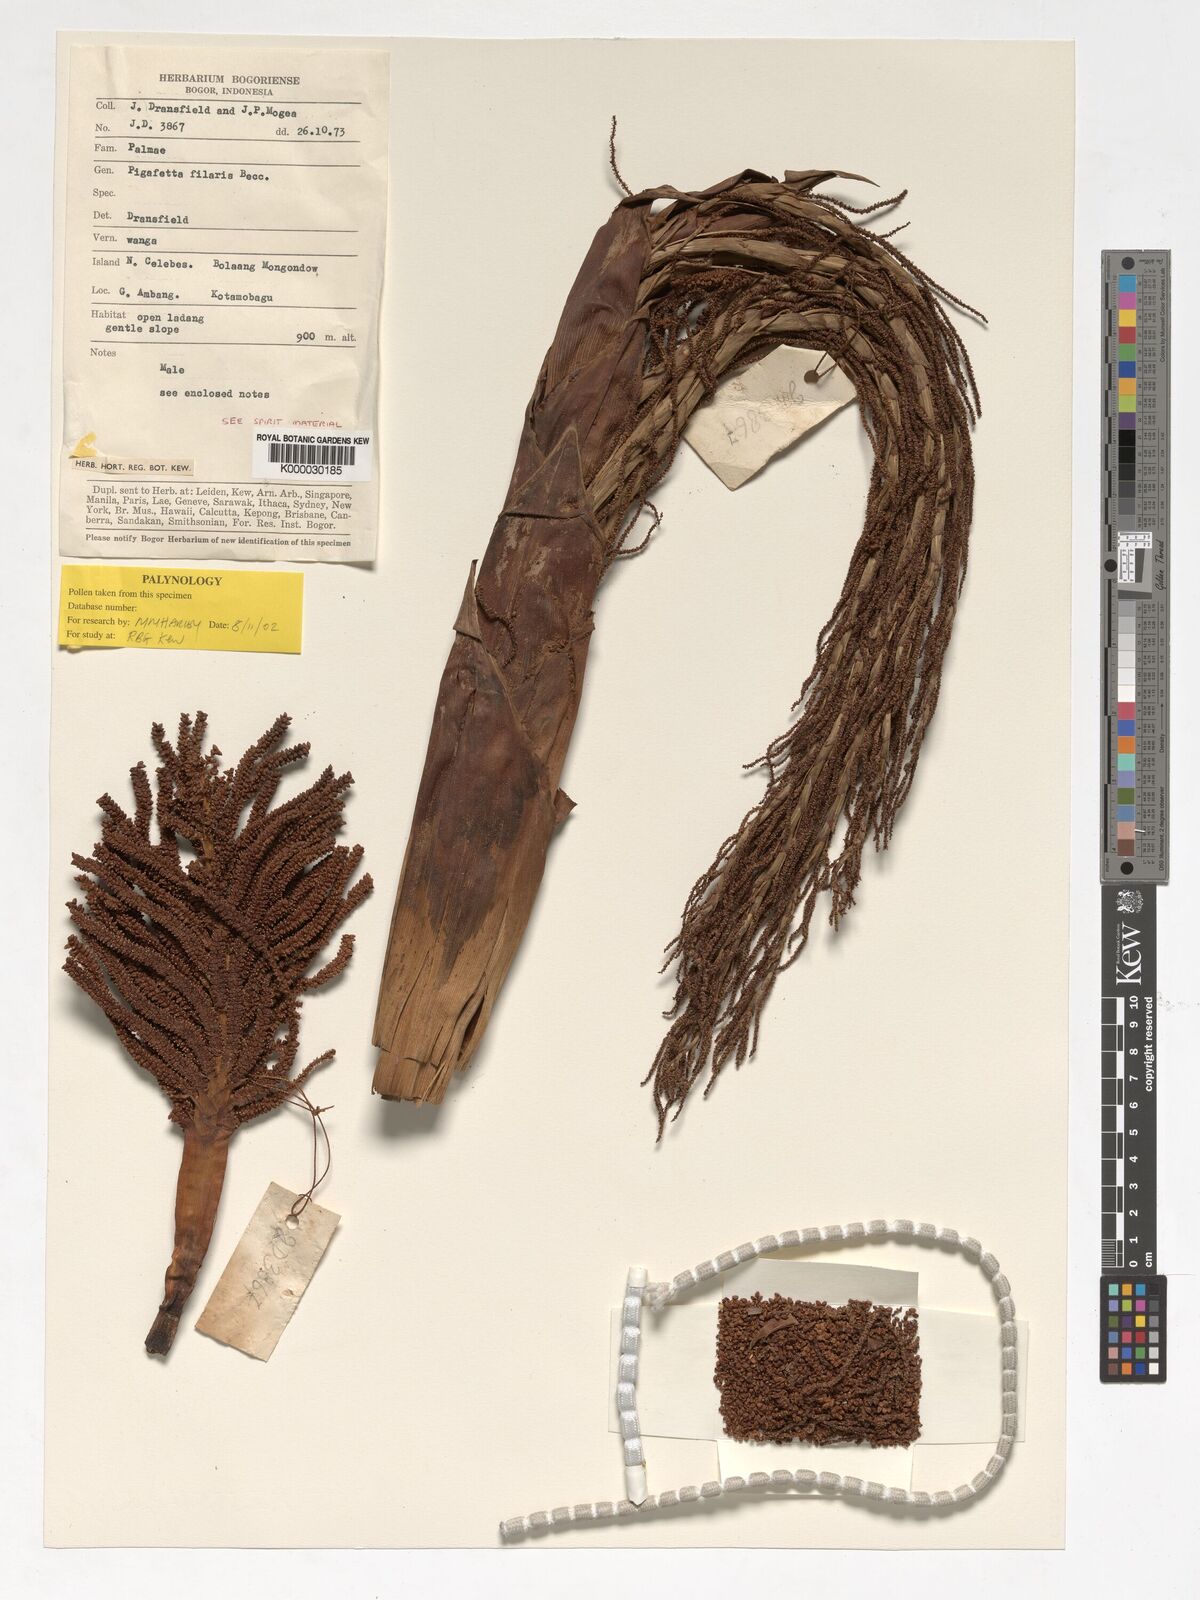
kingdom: Plantae
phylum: Tracheophyta
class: Liliopsida
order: Arecales
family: Arecaceae
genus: Pigafetta
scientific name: Pigafetta filaris
